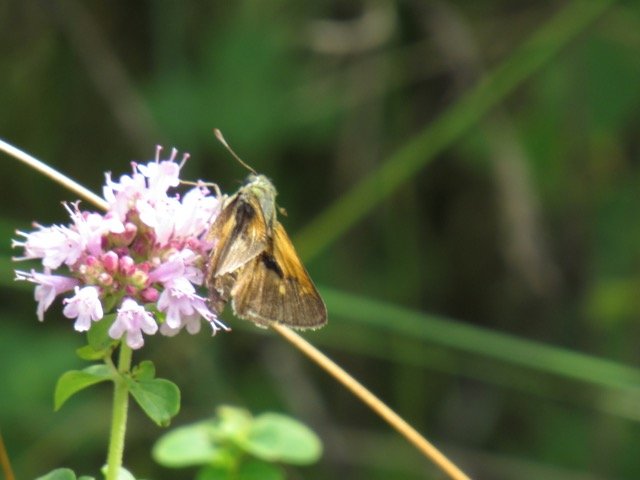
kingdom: Animalia
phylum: Arthropoda
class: Insecta
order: Lepidoptera
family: Hesperiidae
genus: Polites
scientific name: Polites themistocles
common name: Tawny-edged Skipper
